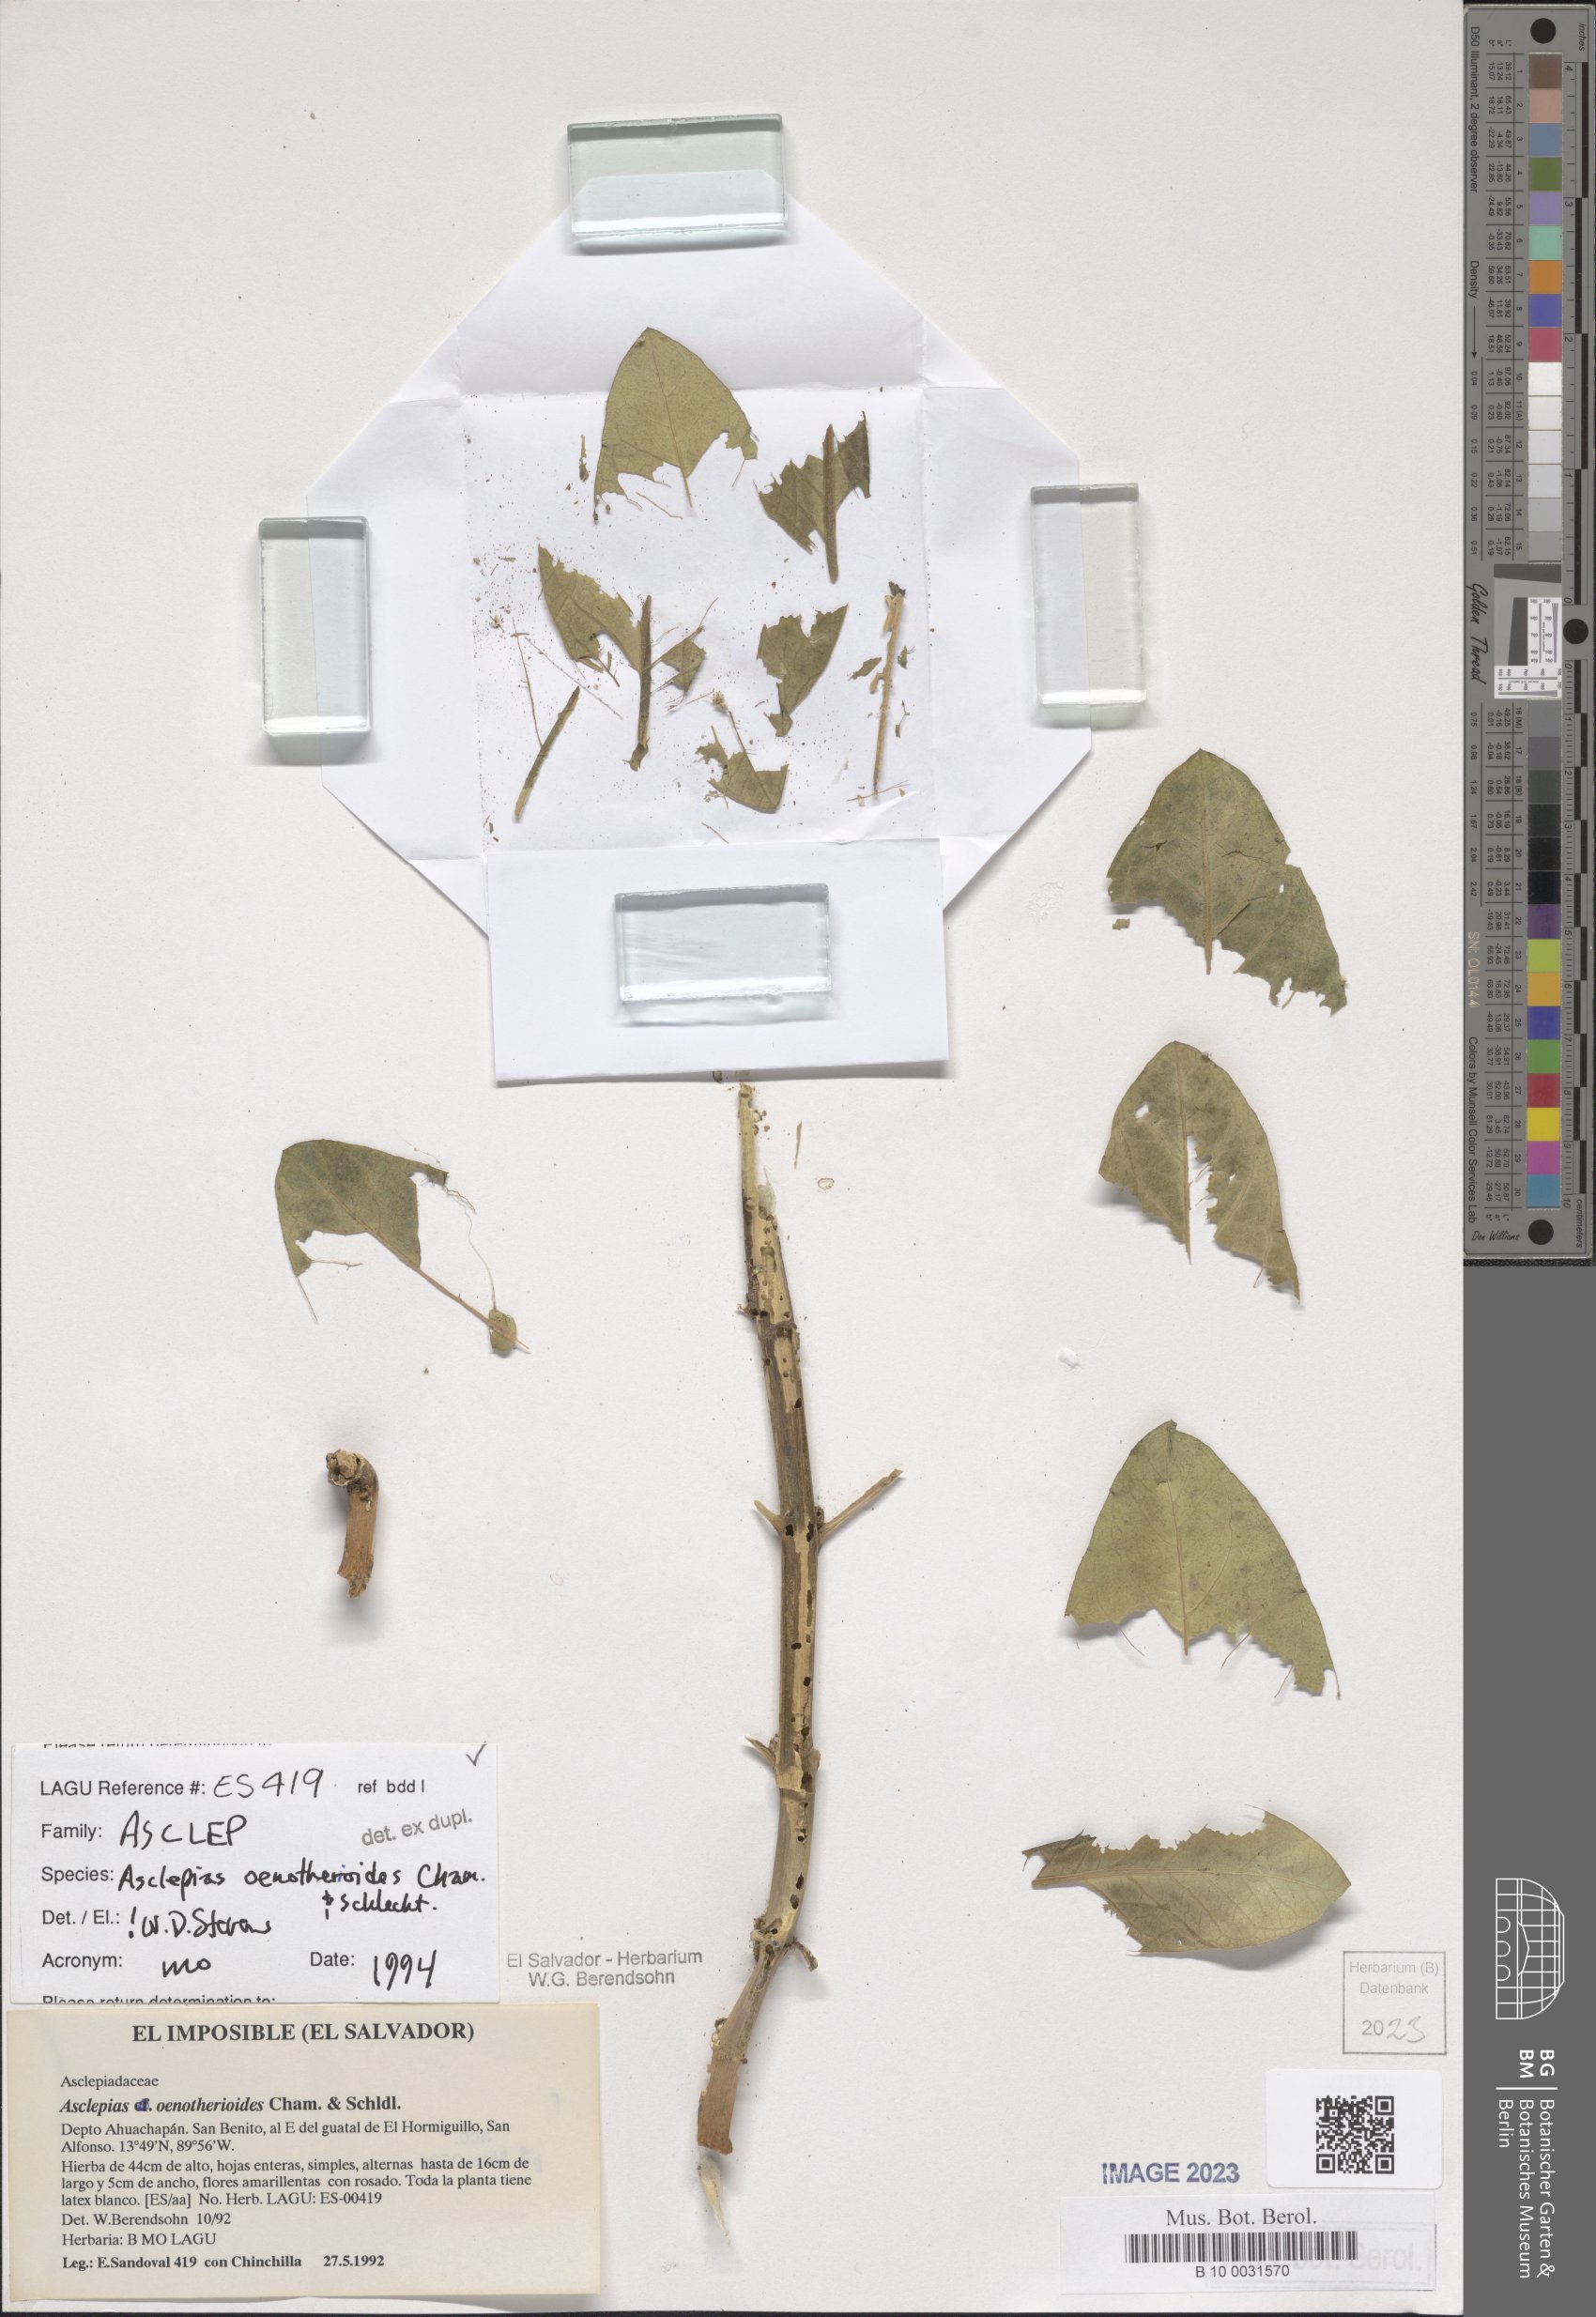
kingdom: Plantae
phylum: Tracheophyta
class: Magnoliopsida
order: Gentianales
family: Apocynaceae
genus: Asclepias
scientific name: Asclepias oenotheroides
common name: Zizotes milkweed
